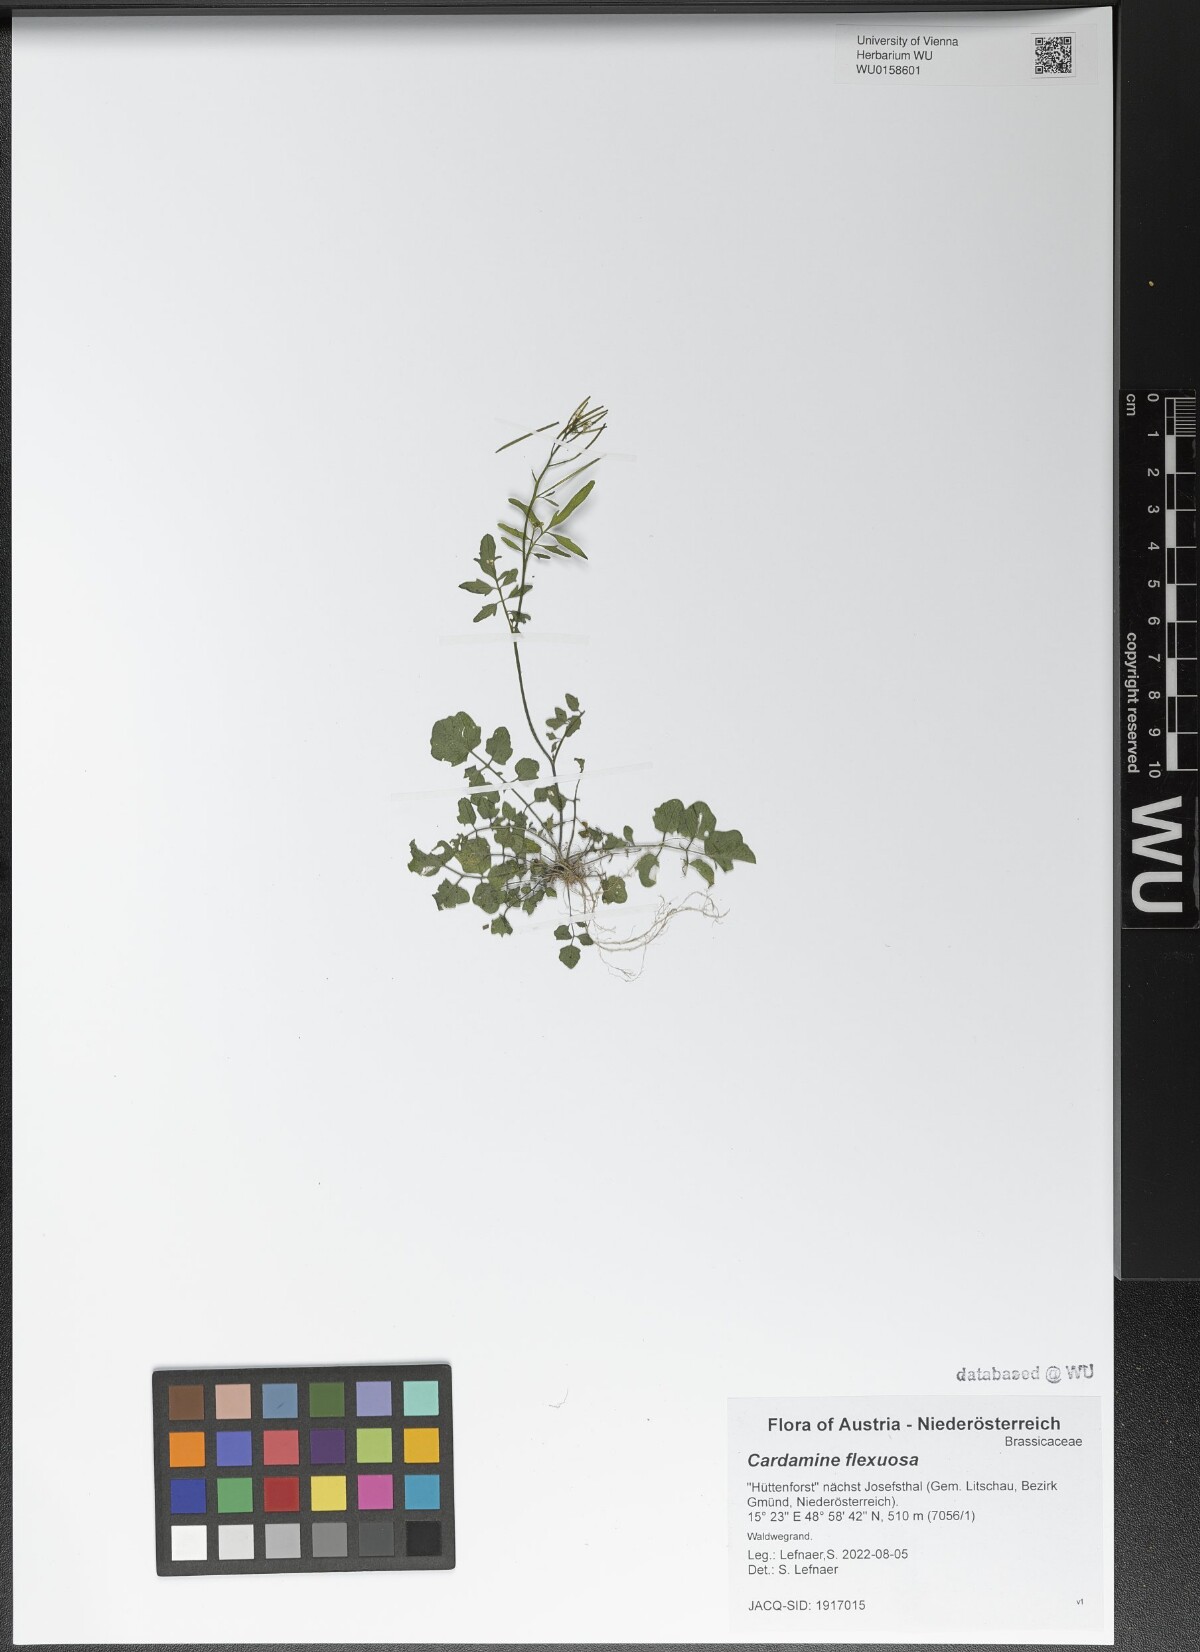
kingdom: Plantae
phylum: Tracheophyta
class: Magnoliopsida
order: Brassicales
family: Brassicaceae
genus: Cardamine
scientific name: Cardamine flexuosa
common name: Woodland bittercress
